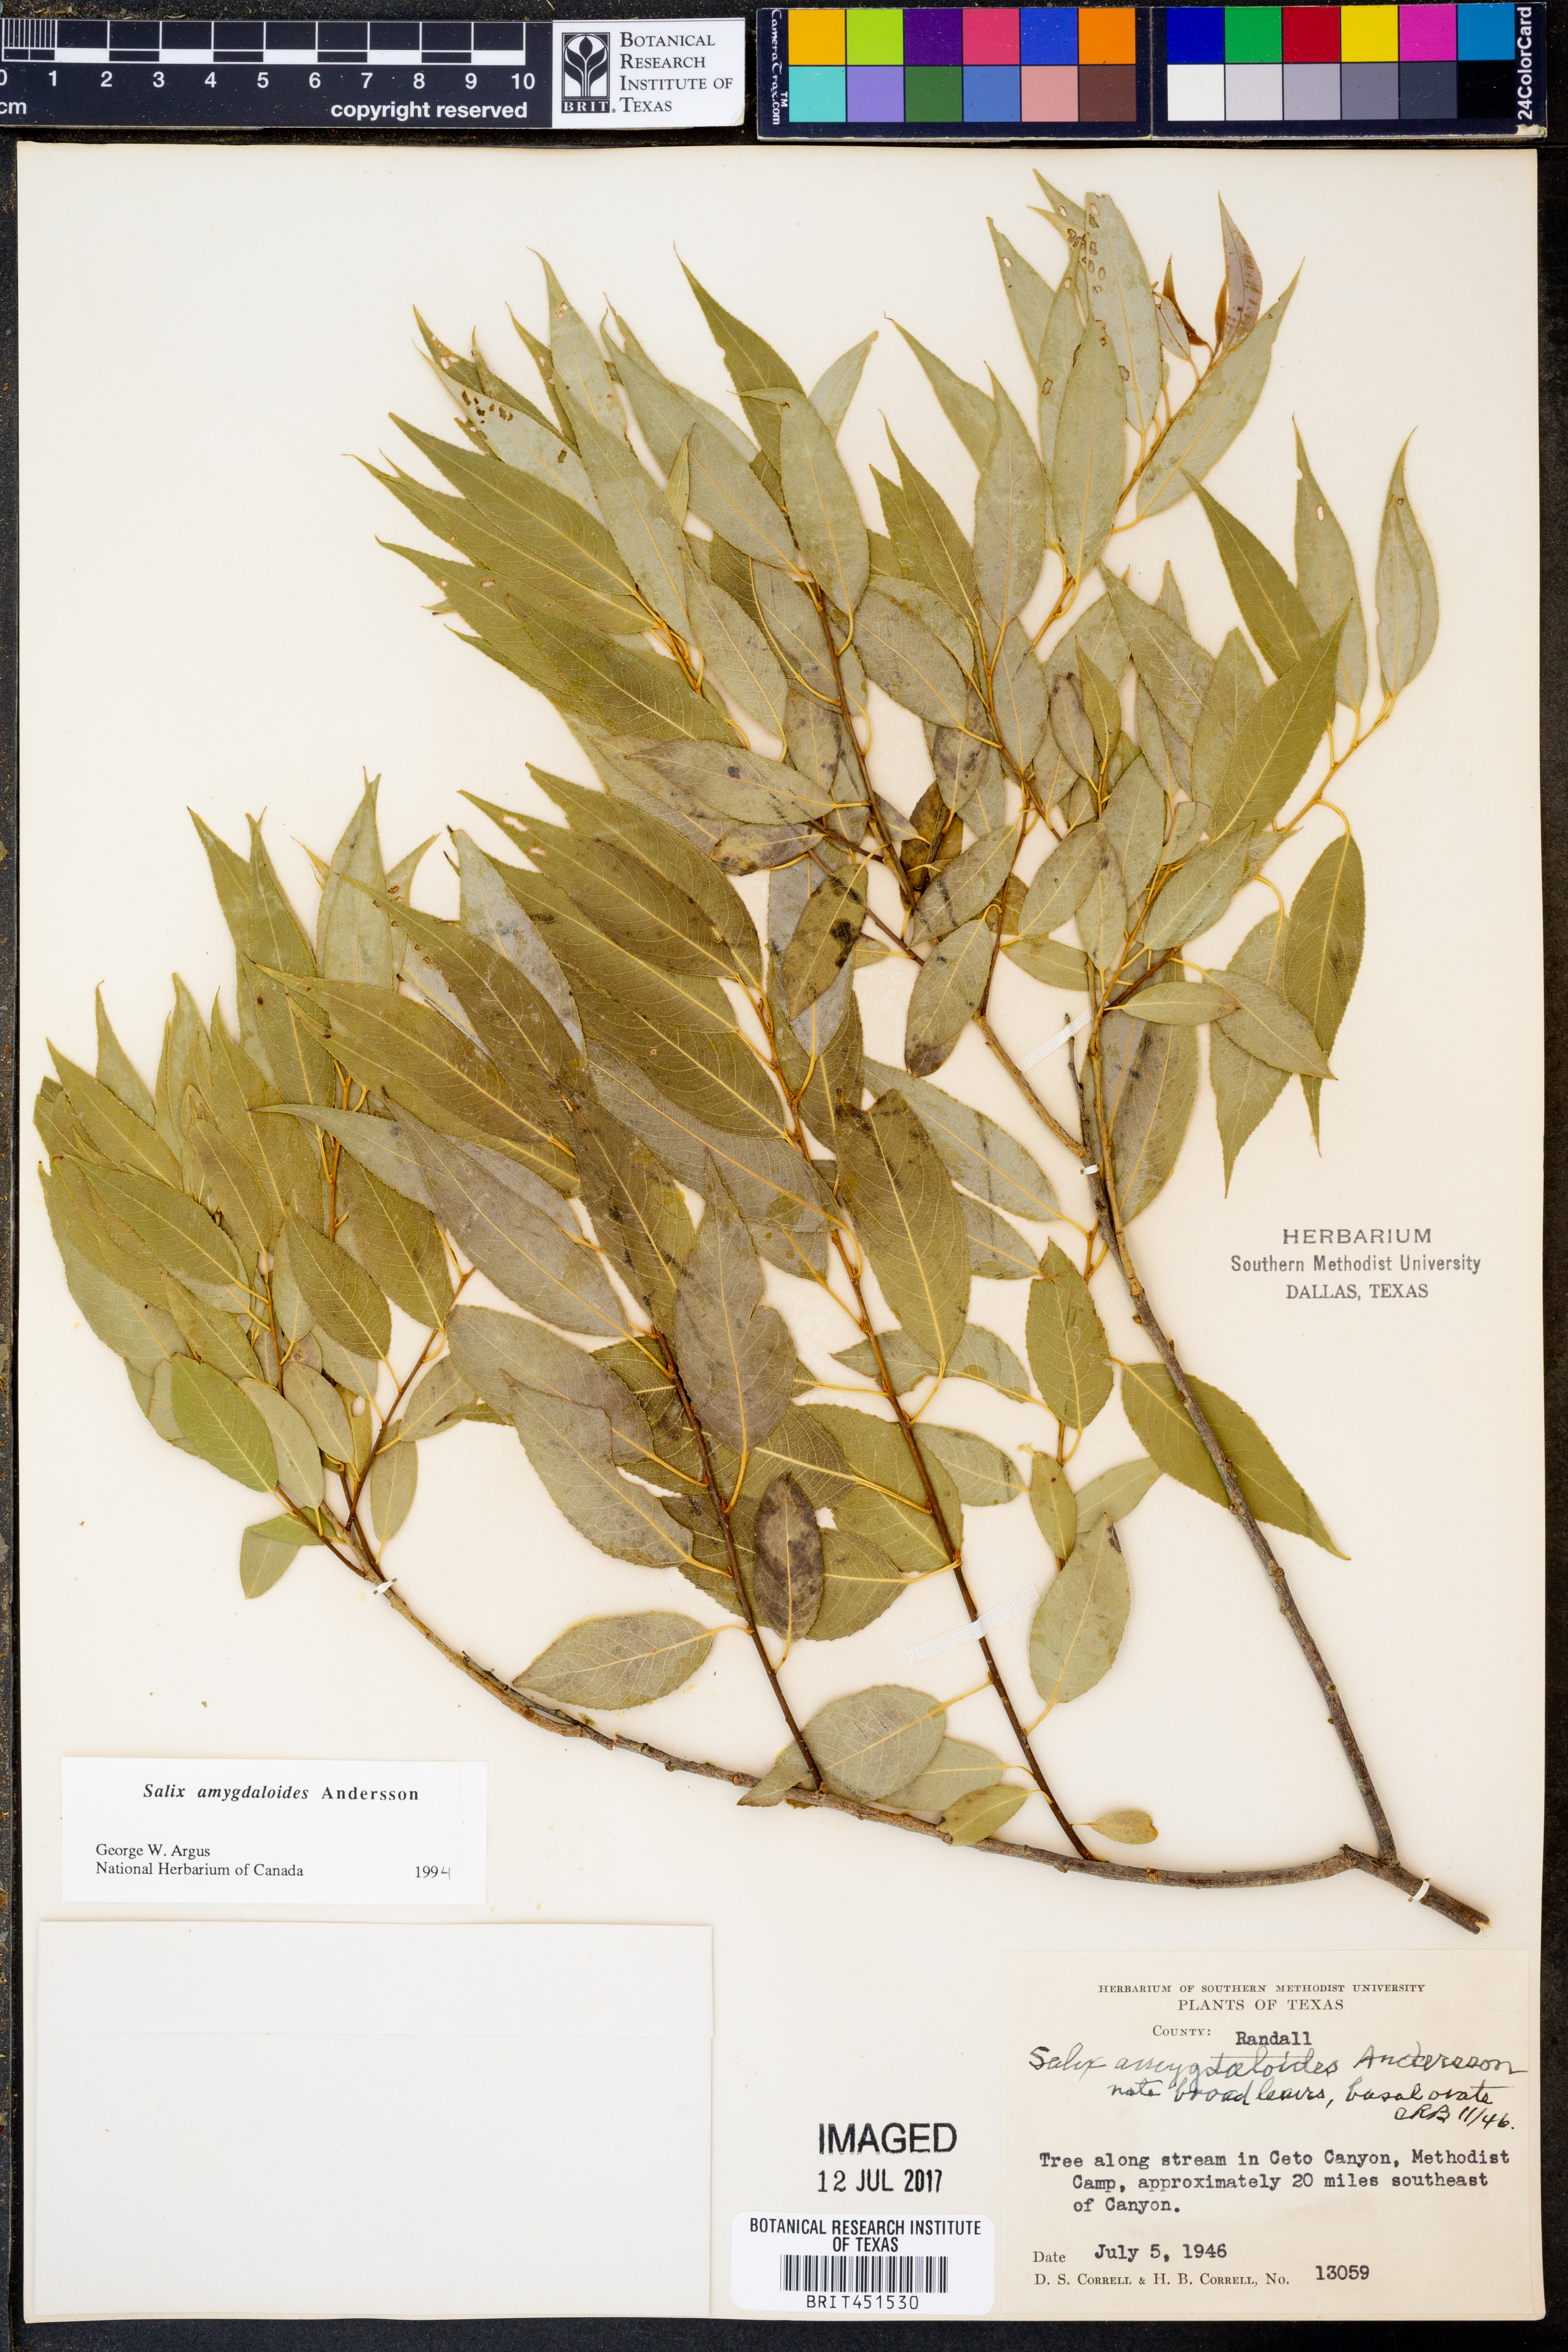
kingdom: Plantae
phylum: Tracheophyta
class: Magnoliopsida
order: Malpighiales
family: Salicaceae
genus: Salix
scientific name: Salix amygdaloides
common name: Peach leaf willow
